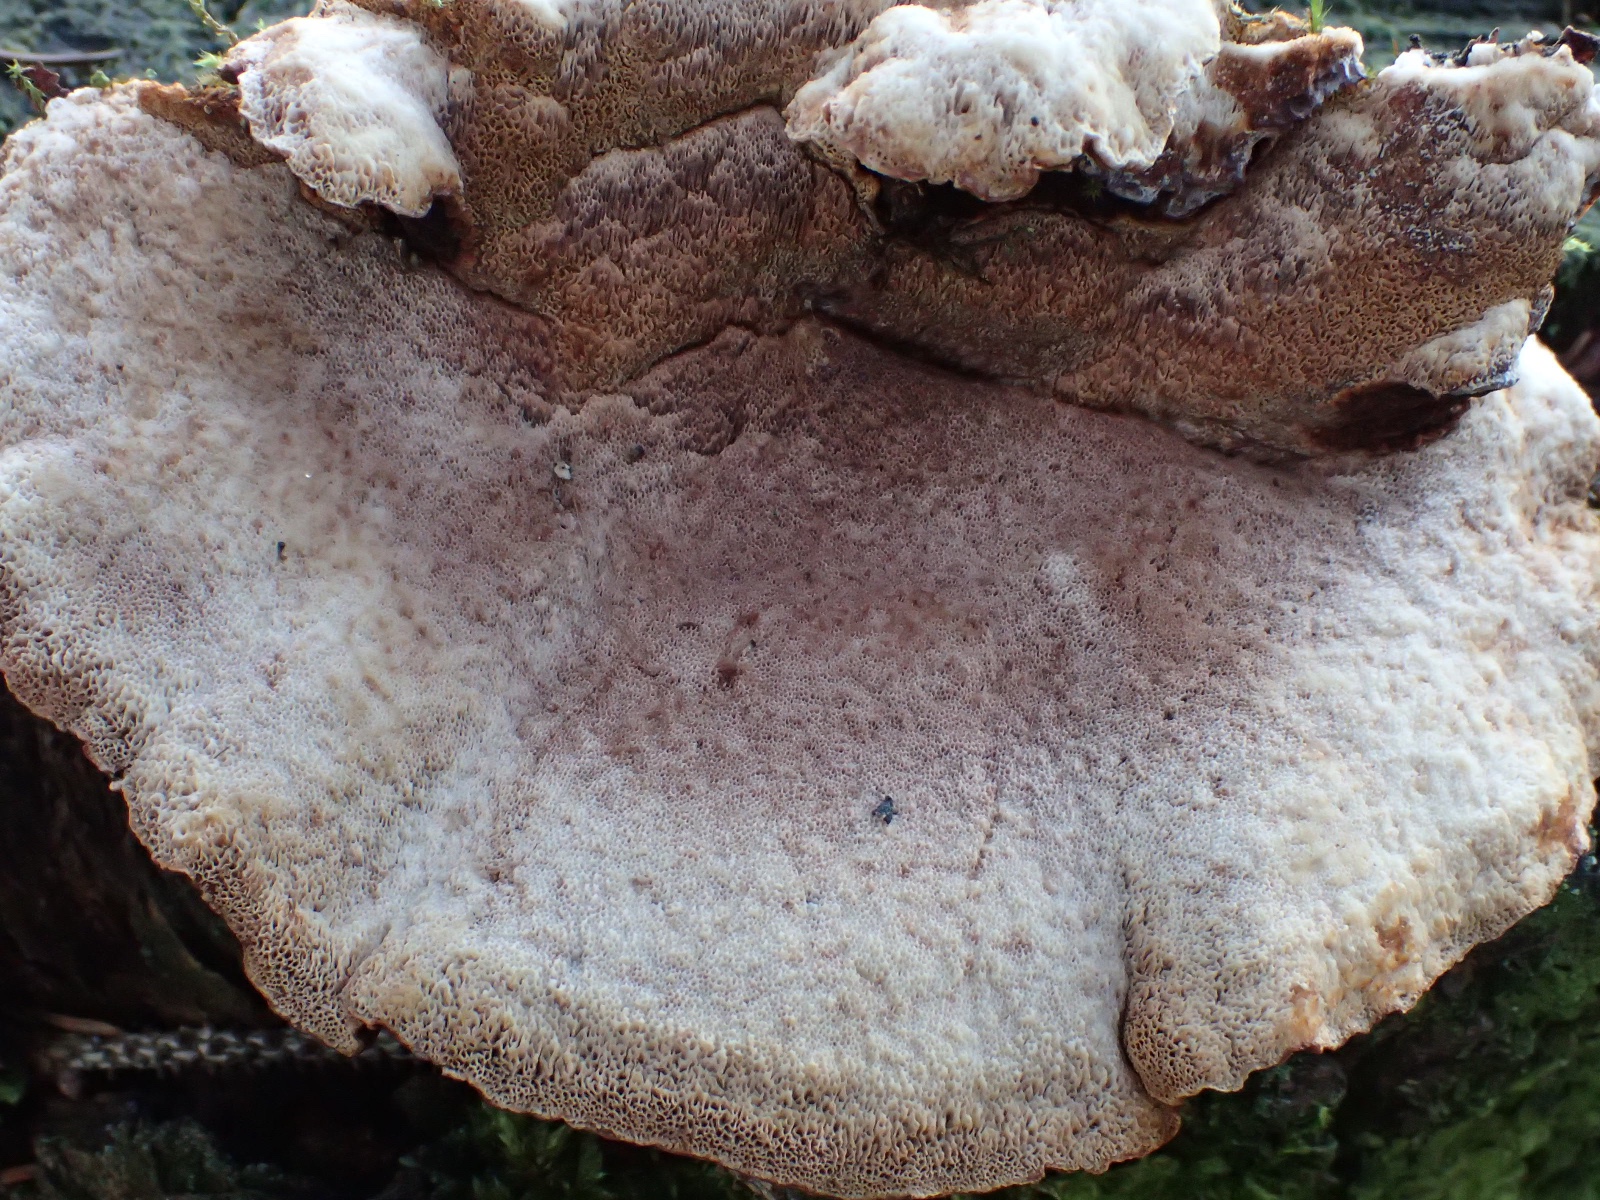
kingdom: Fungi
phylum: Basidiomycota
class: Agaricomycetes
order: Polyporales
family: Ischnodermataceae
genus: Ischnoderma
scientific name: Ischnoderma benzoinum
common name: gran-tjæreporesvamp
